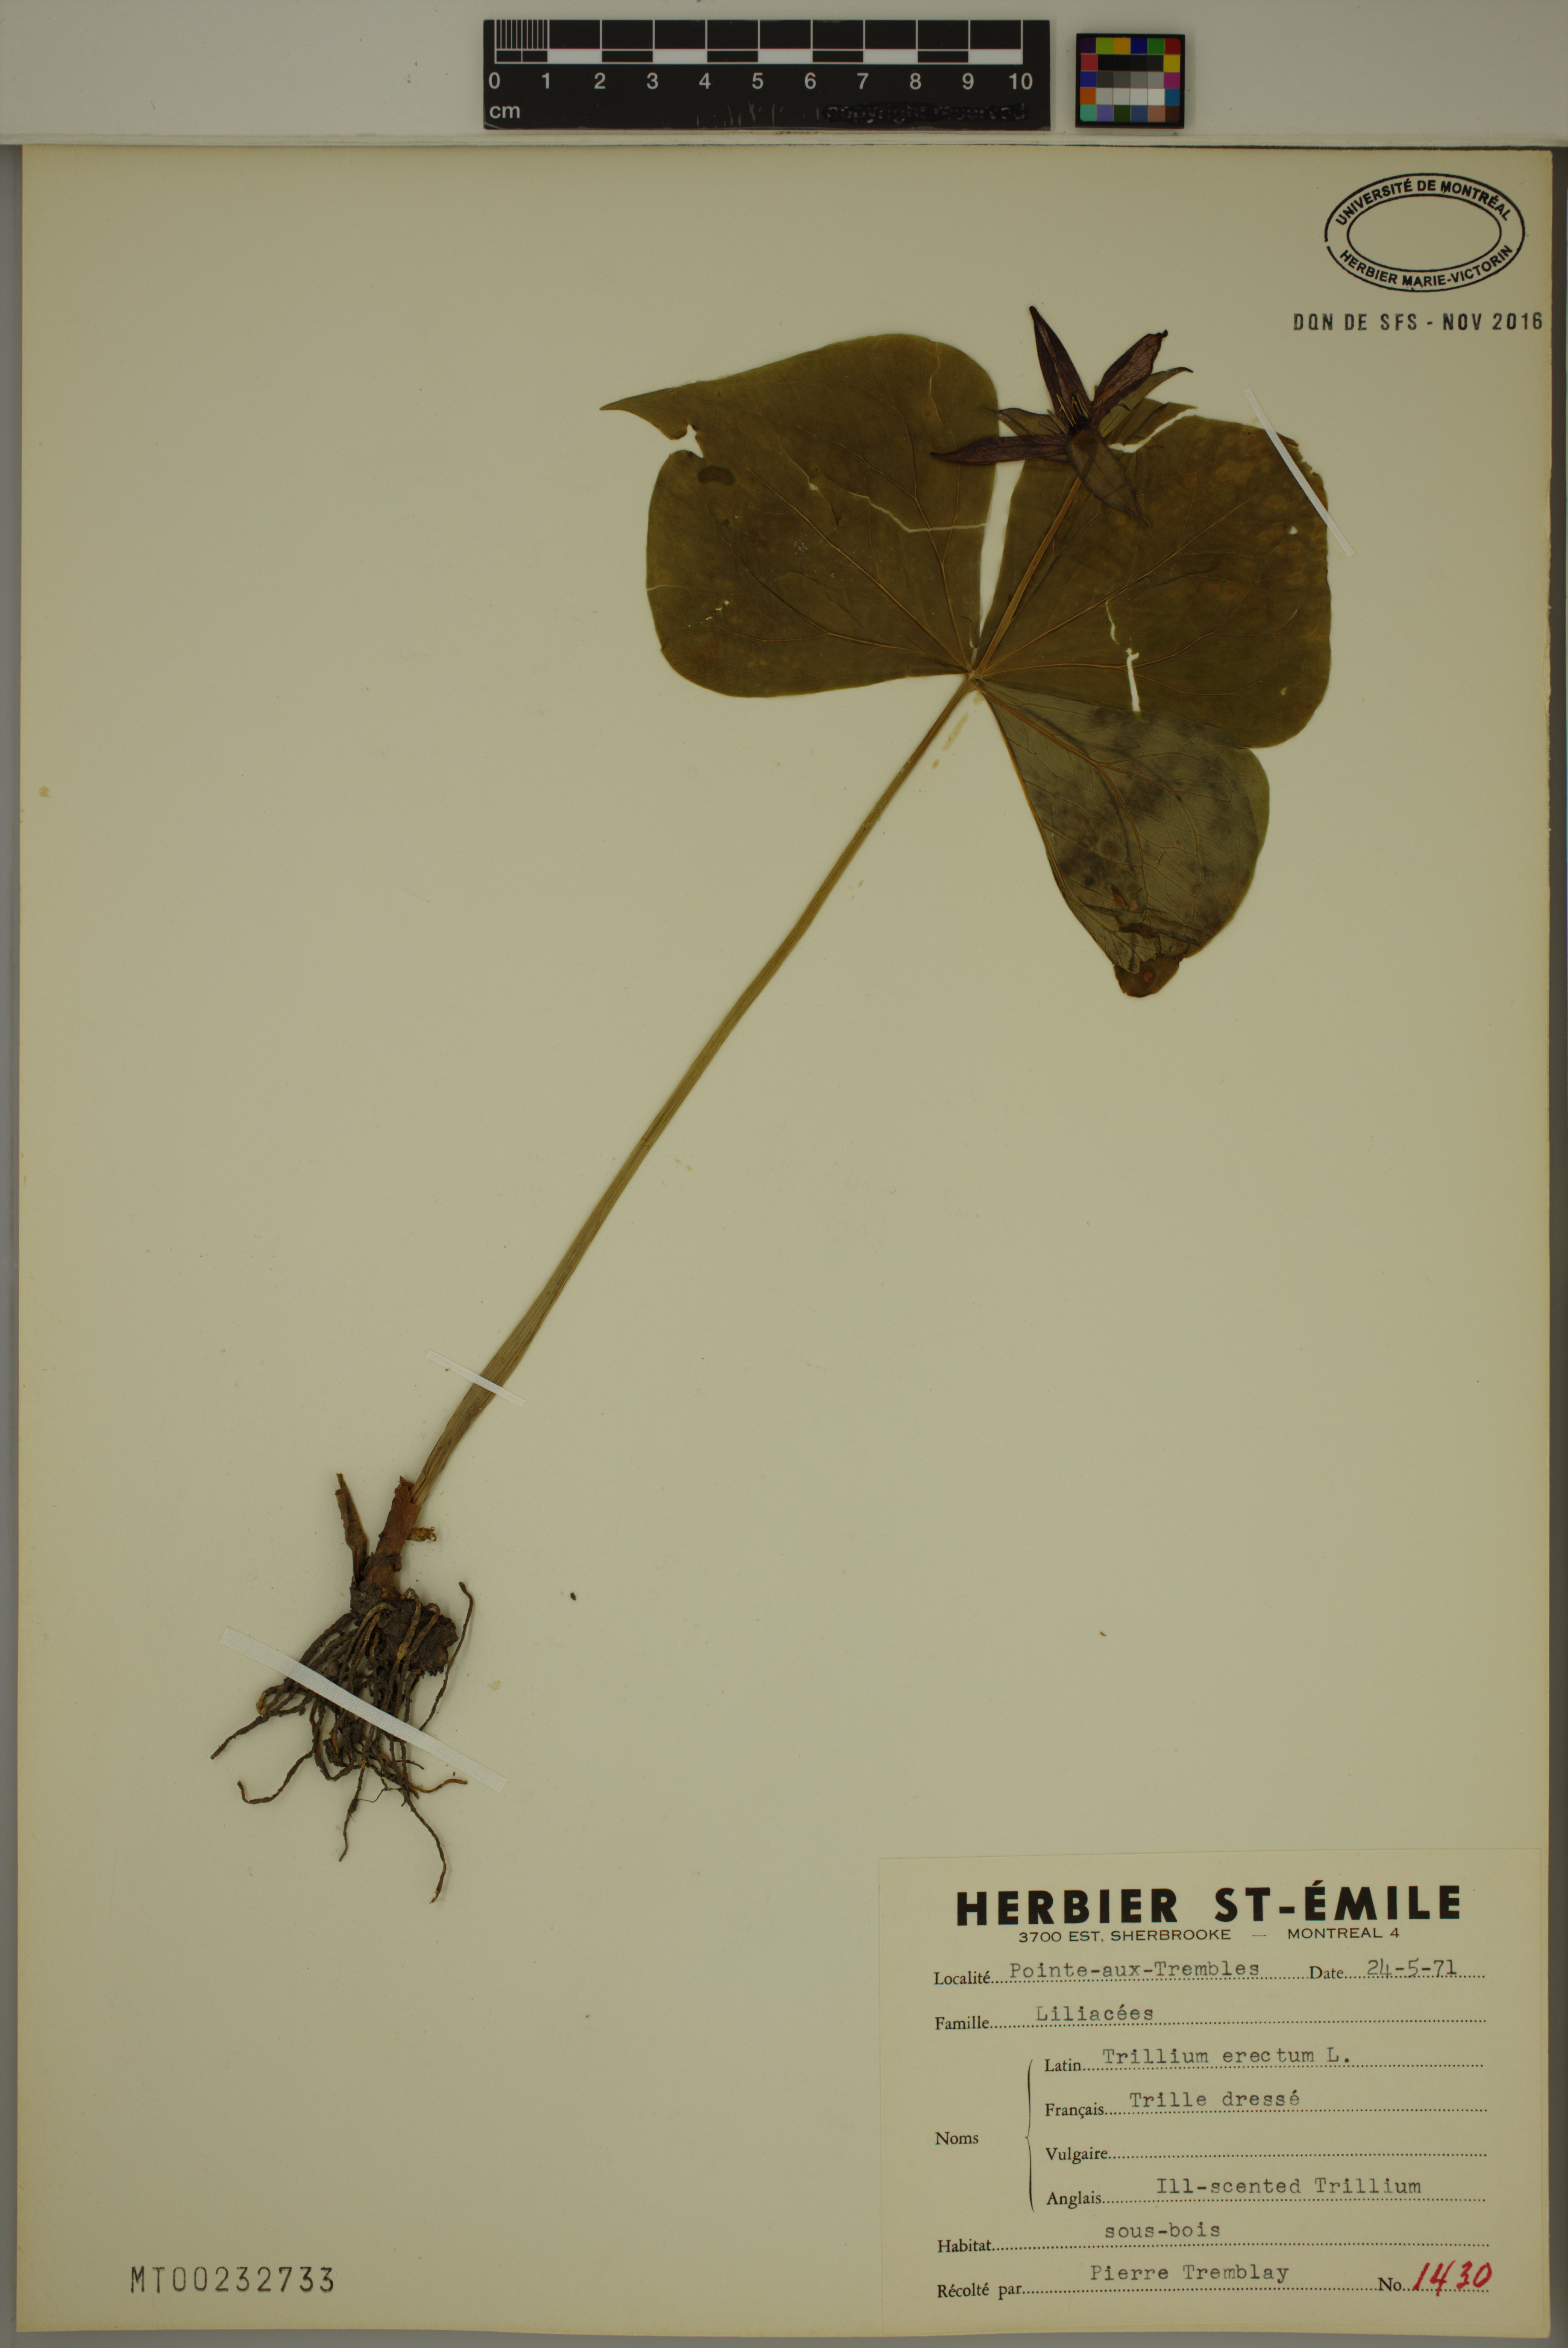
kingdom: Plantae
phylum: Tracheophyta
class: Liliopsida
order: Liliales
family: Melanthiaceae
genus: Trillium
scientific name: Trillium erectum
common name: Purple trillium
